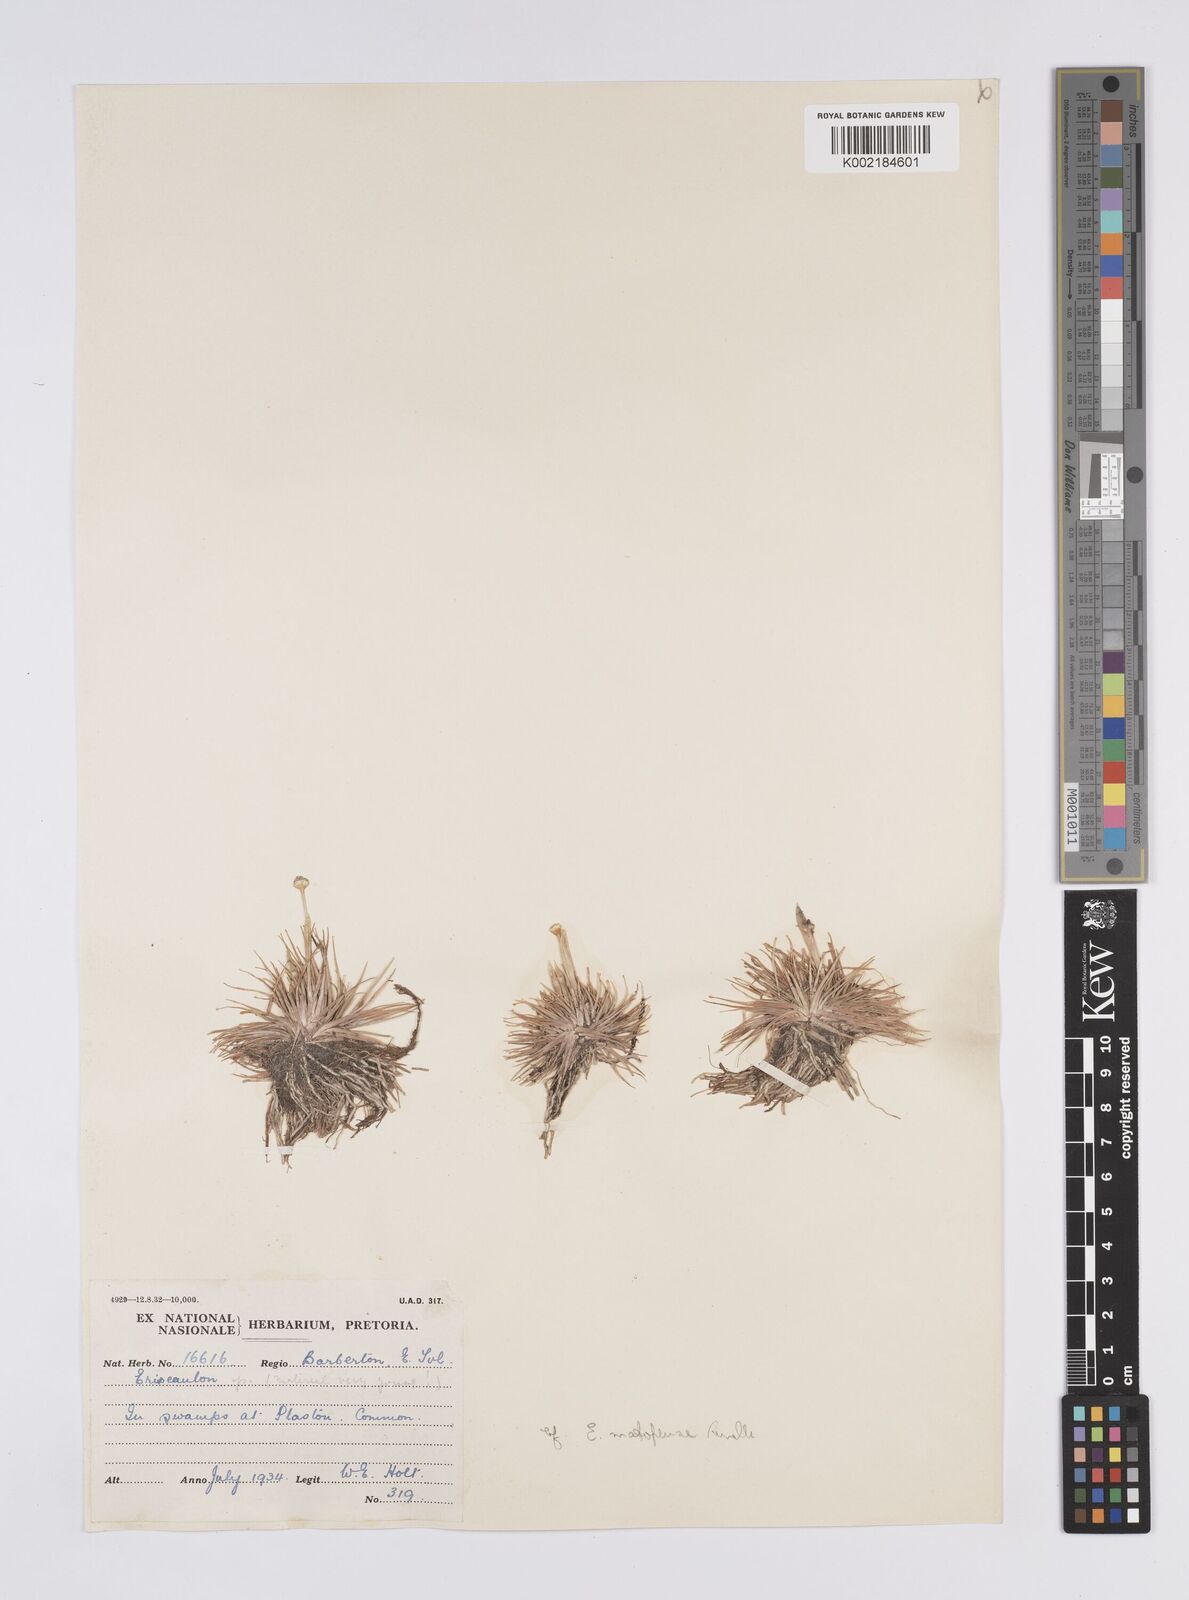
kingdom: Plantae
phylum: Tracheophyta
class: Liliopsida
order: Poales
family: Eriocaulaceae
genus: Eriocaulon
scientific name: Eriocaulon
